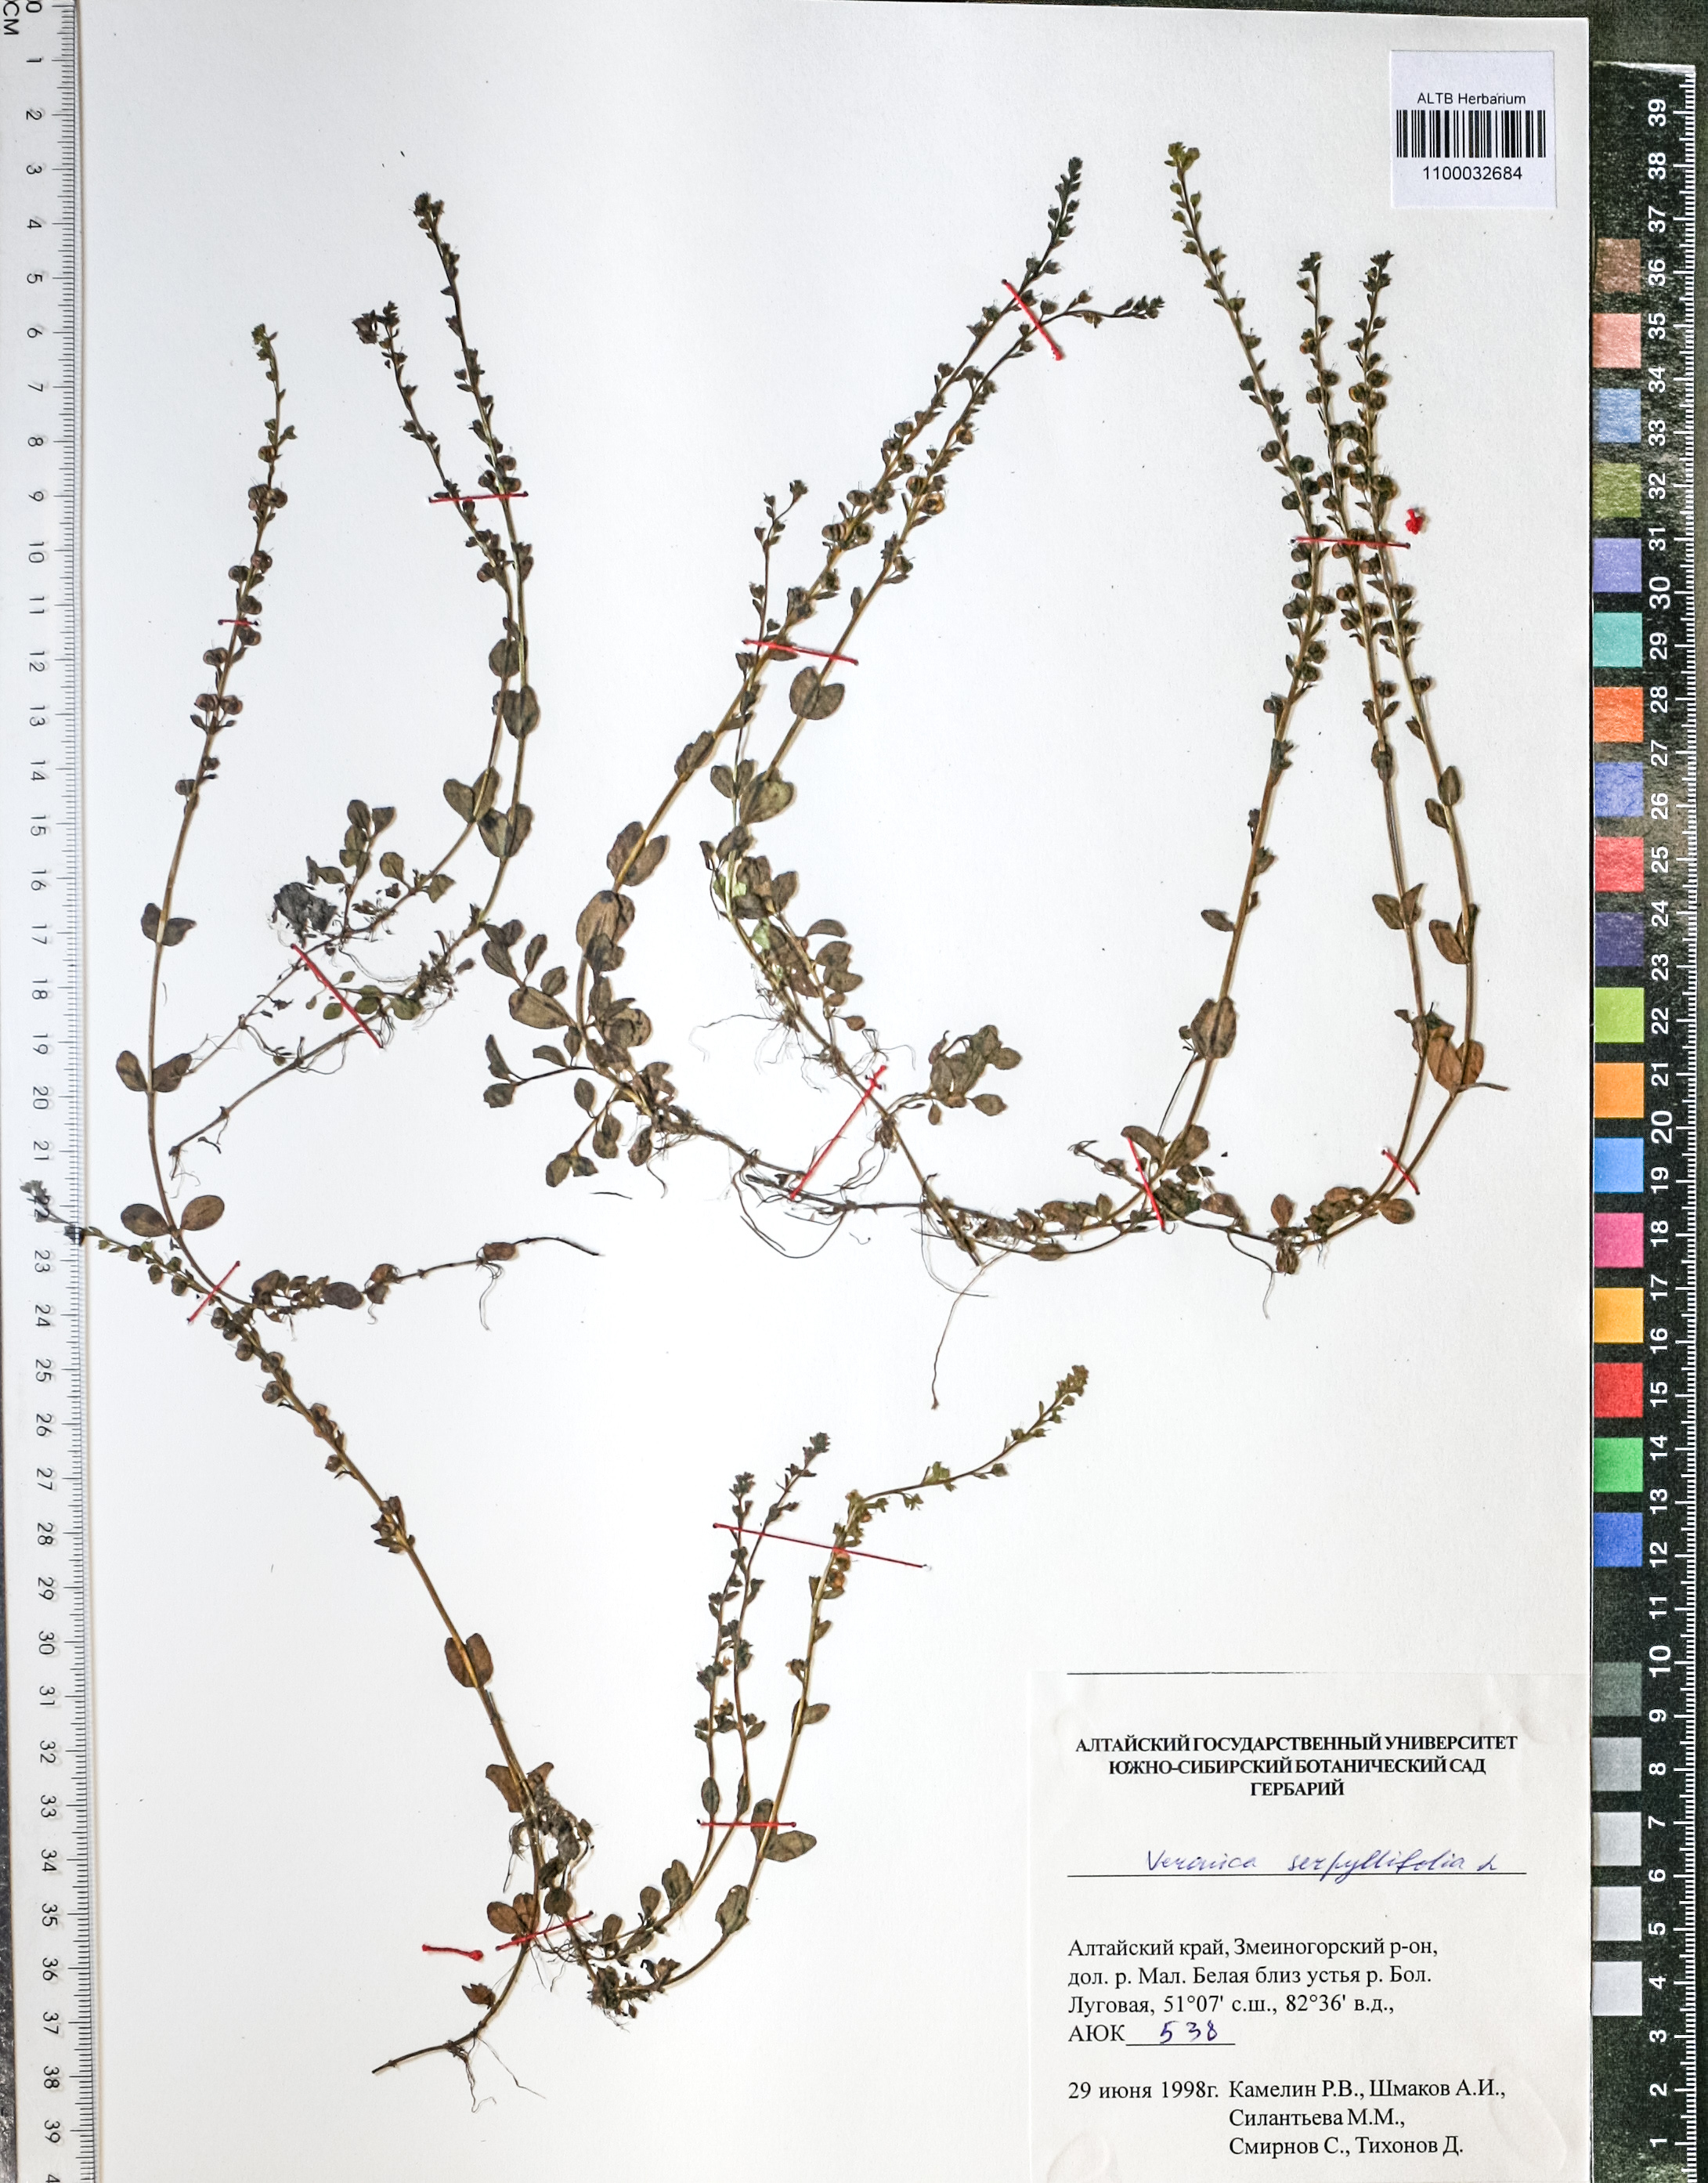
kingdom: Plantae
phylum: Tracheophyta
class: Magnoliopsida
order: Lamiales
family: Plantaginaceae
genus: Veronica
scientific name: Veronica serpyllifolia
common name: Thyme-leaved speedwell
